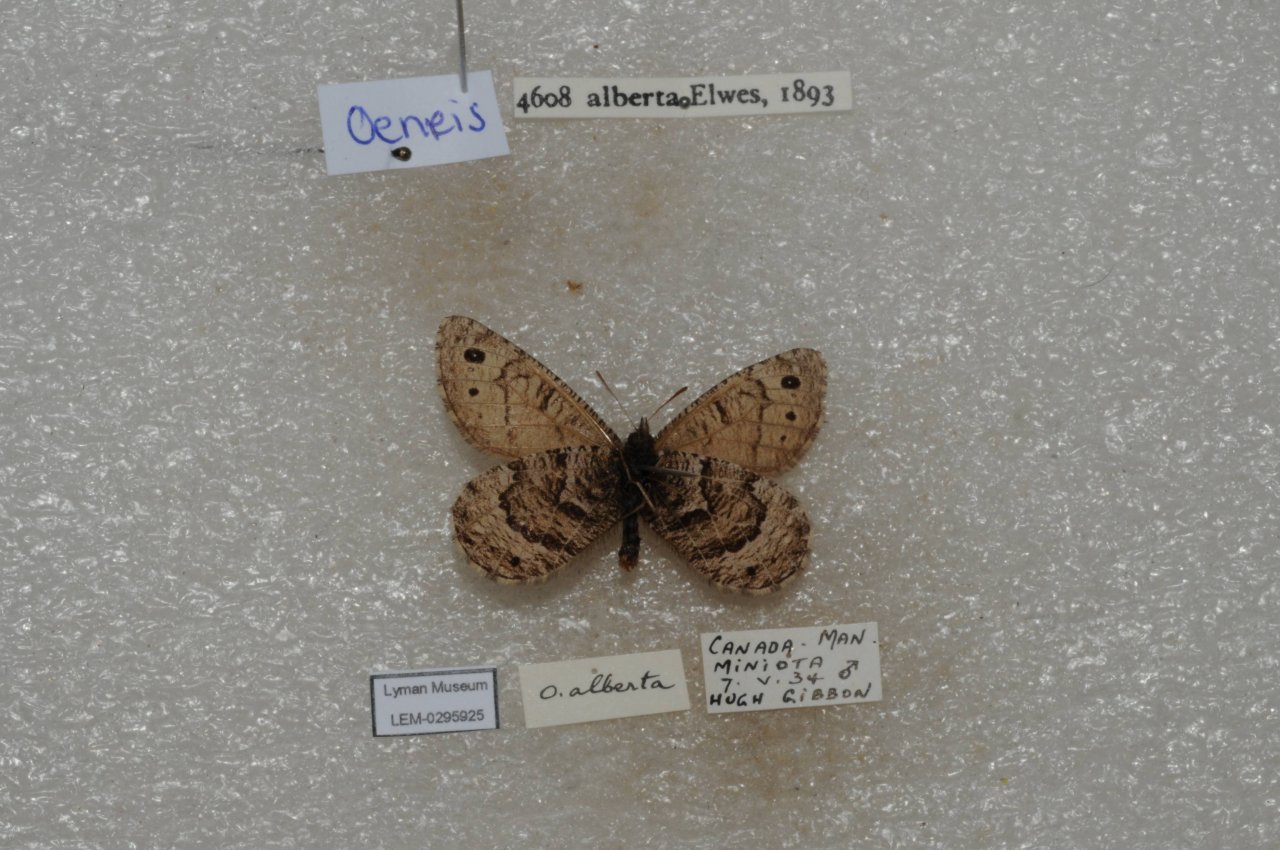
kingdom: Animalia
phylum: Arthropoda
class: Insecta
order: Lepidoptera
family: Nymphalidae
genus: Oeneis
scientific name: Oeneis alberta
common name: Alberta Arctic
